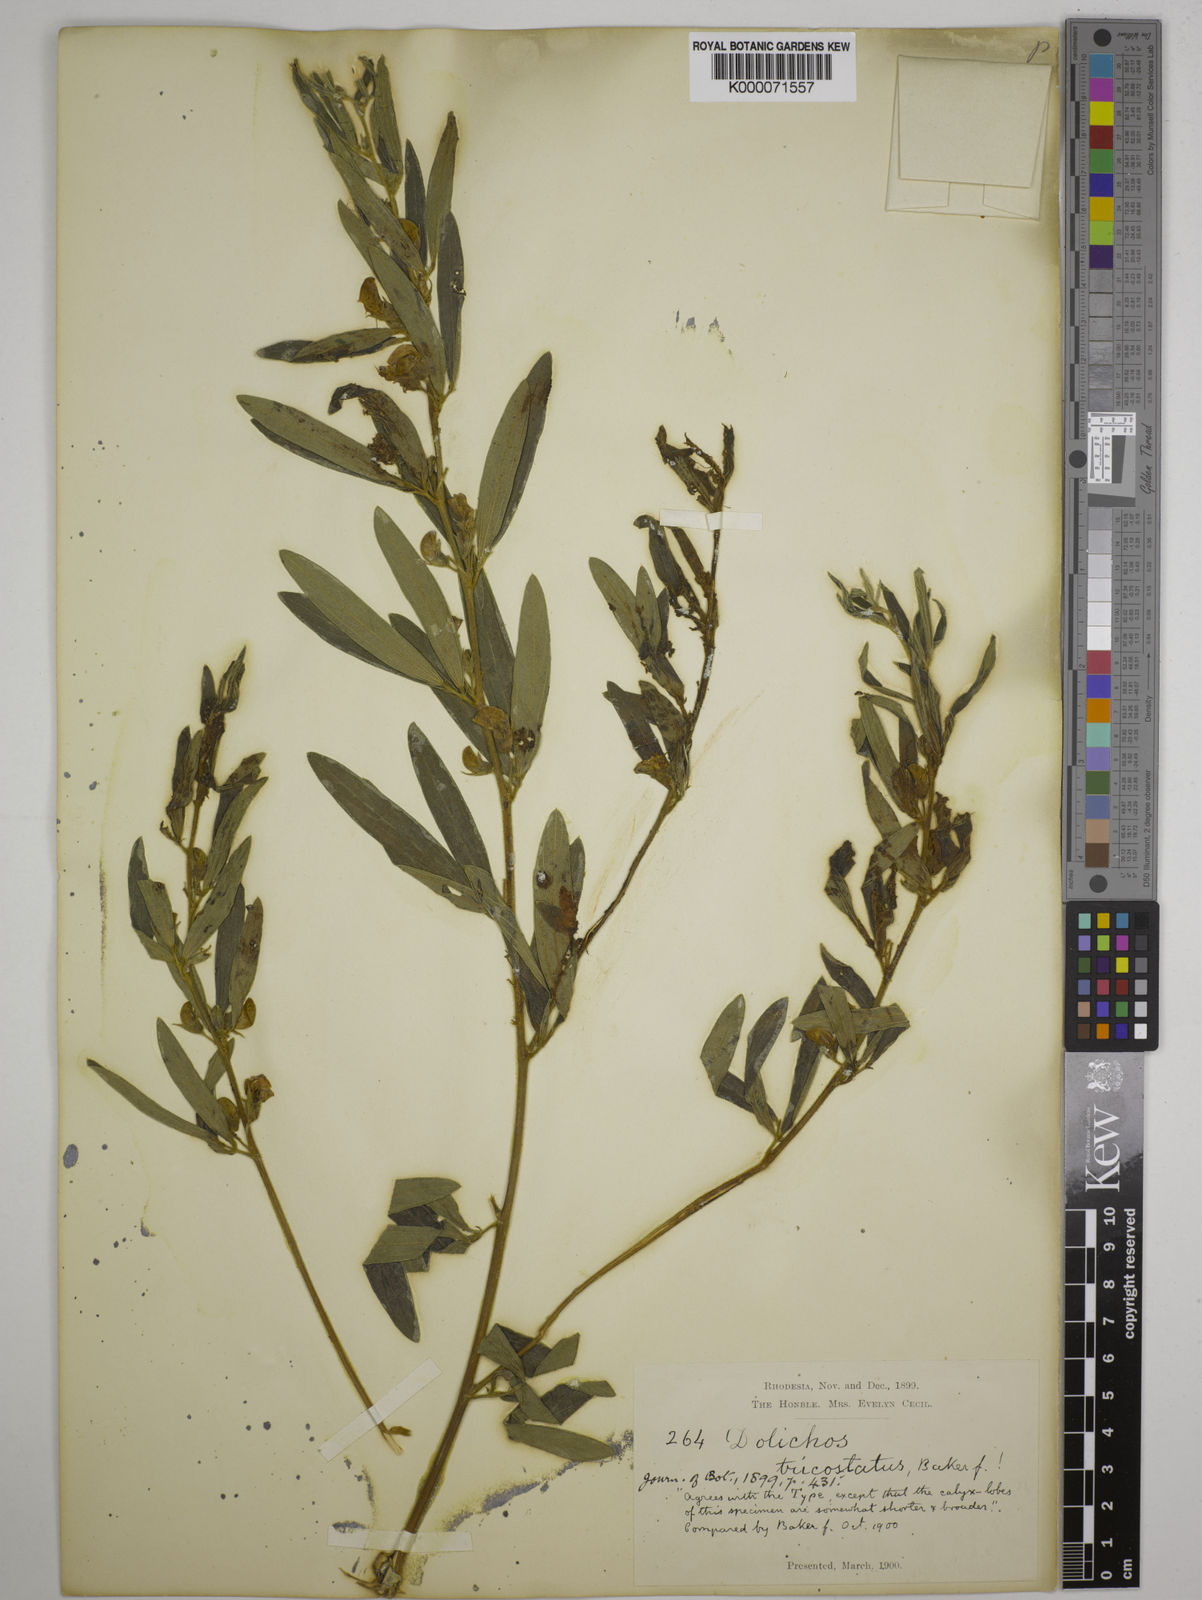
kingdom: Plantae
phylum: Tracheophyta
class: Magnoliopsida
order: Fabales
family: Fabaceae
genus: Dolichos
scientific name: Dolichos trinervatus
